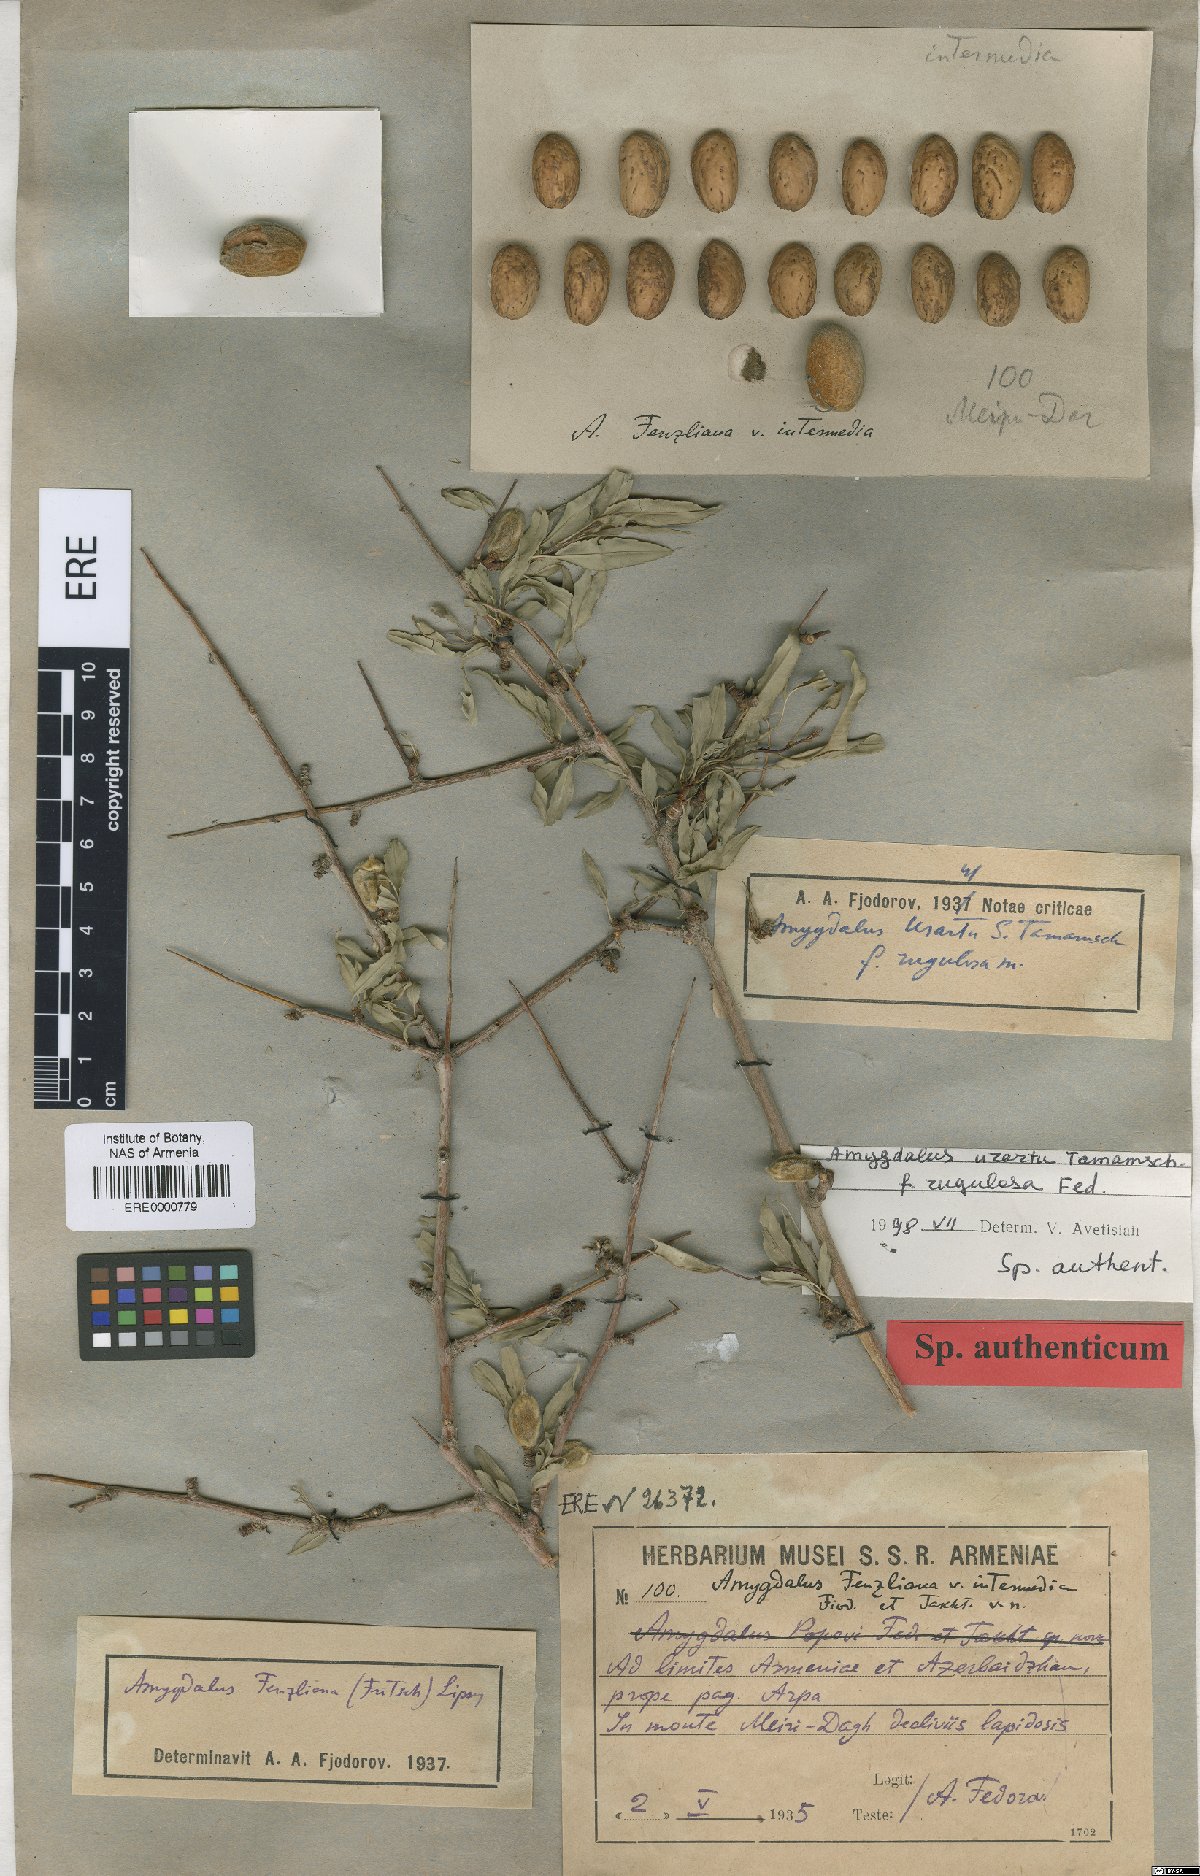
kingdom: Plantae
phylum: Tracheophyta
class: Magnoliopsida
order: Rosales
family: Rosaceae
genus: Prunus
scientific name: Prunus urartu
